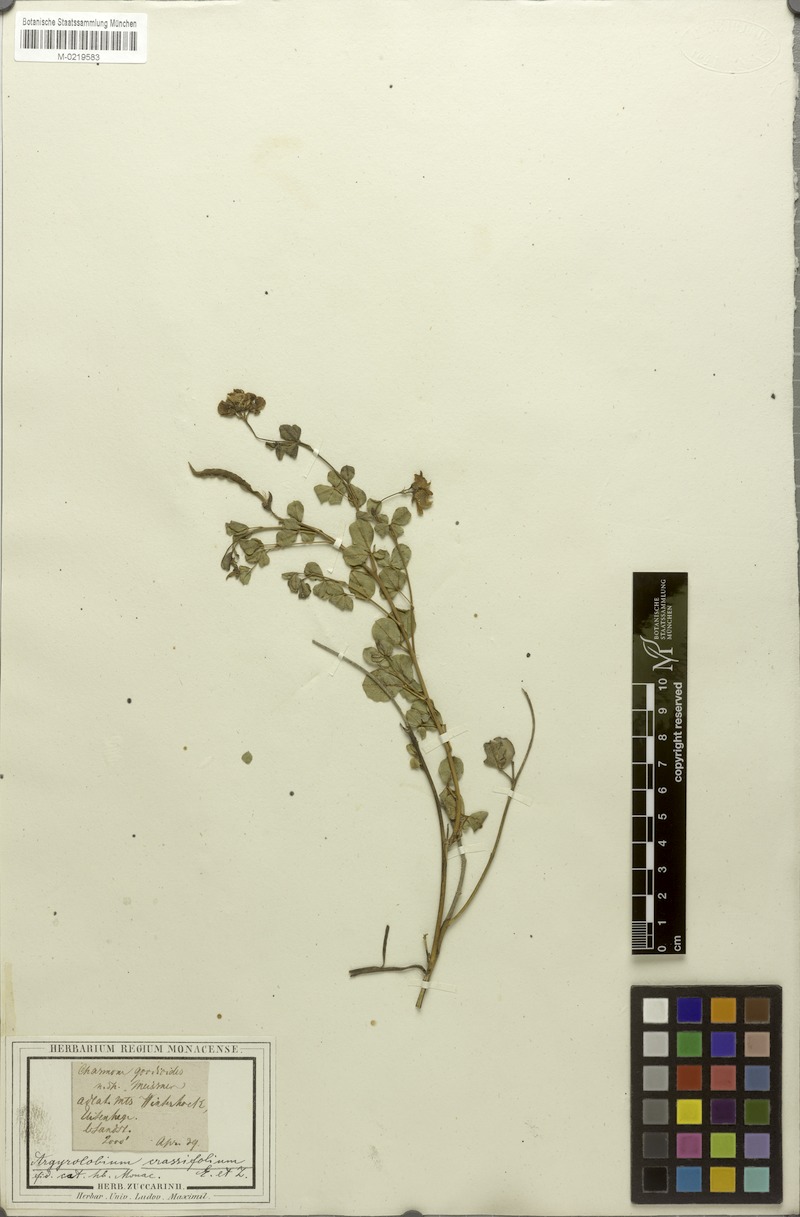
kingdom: Plantae
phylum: Tracheophyta
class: Magnoliopsida
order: Fabales
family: Fabaceae
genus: Argyrolobium
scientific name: Argyrolobium crassifolium
